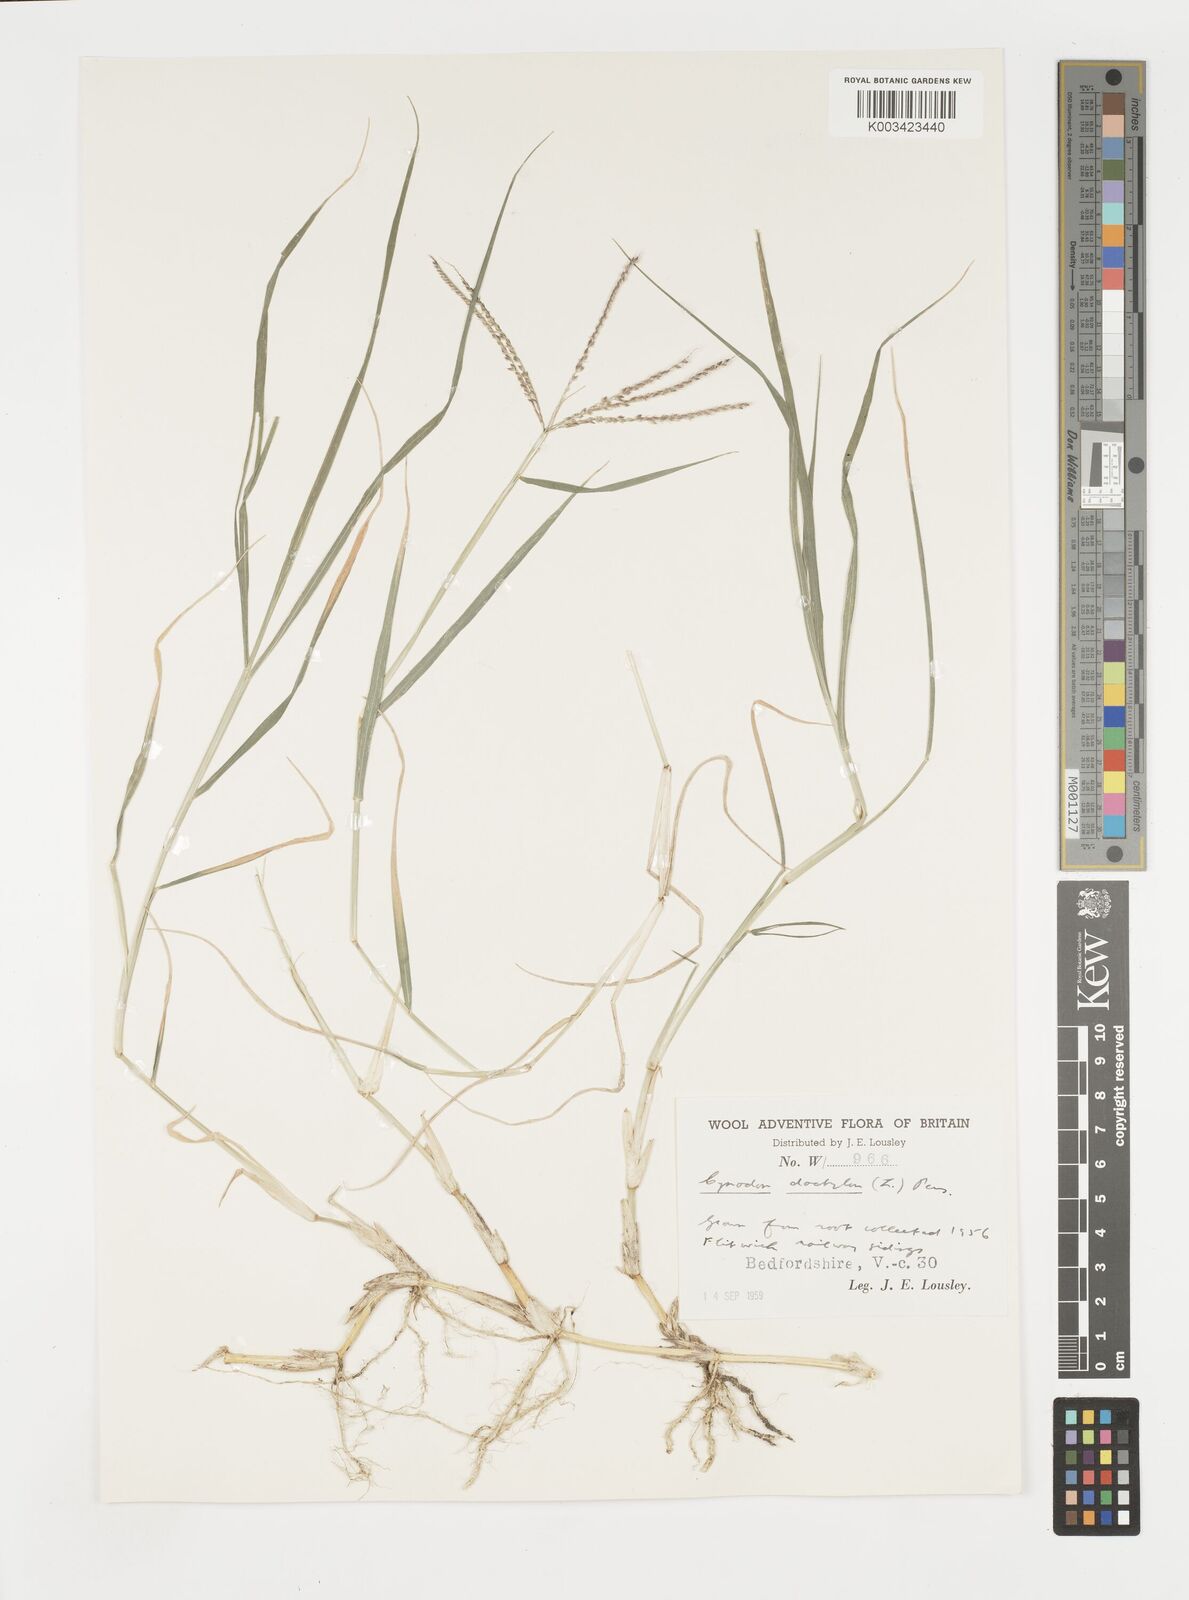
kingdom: Plantae
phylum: Tracheophyta
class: Liliopsida
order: Poales
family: Poaceae
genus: Cynodon
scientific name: Cynodon dactylon
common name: Bermuda grass
